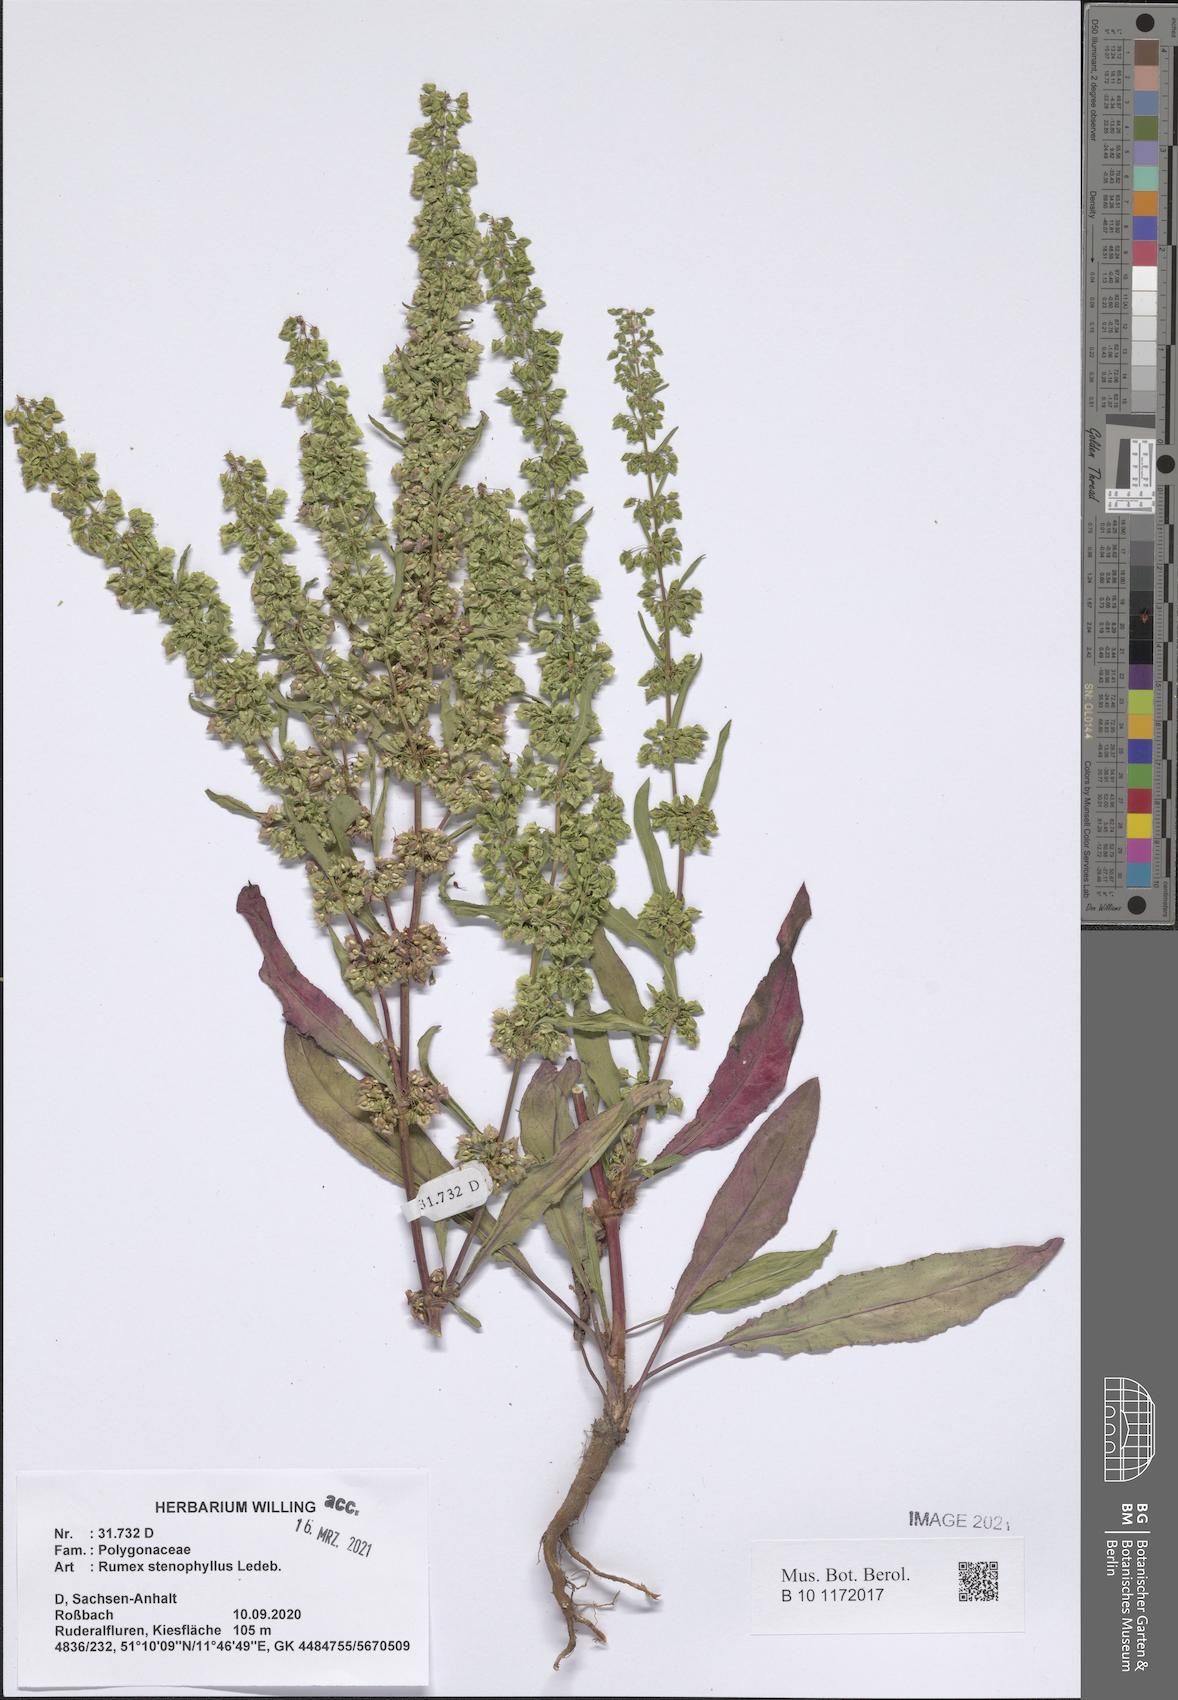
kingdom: Plantae
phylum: Tracheophyta
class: Magnoliopsida
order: Caryophyllales
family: Polygonaceae
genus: Rumex
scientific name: Rumex stenophyllus
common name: Narrowleaf dock
